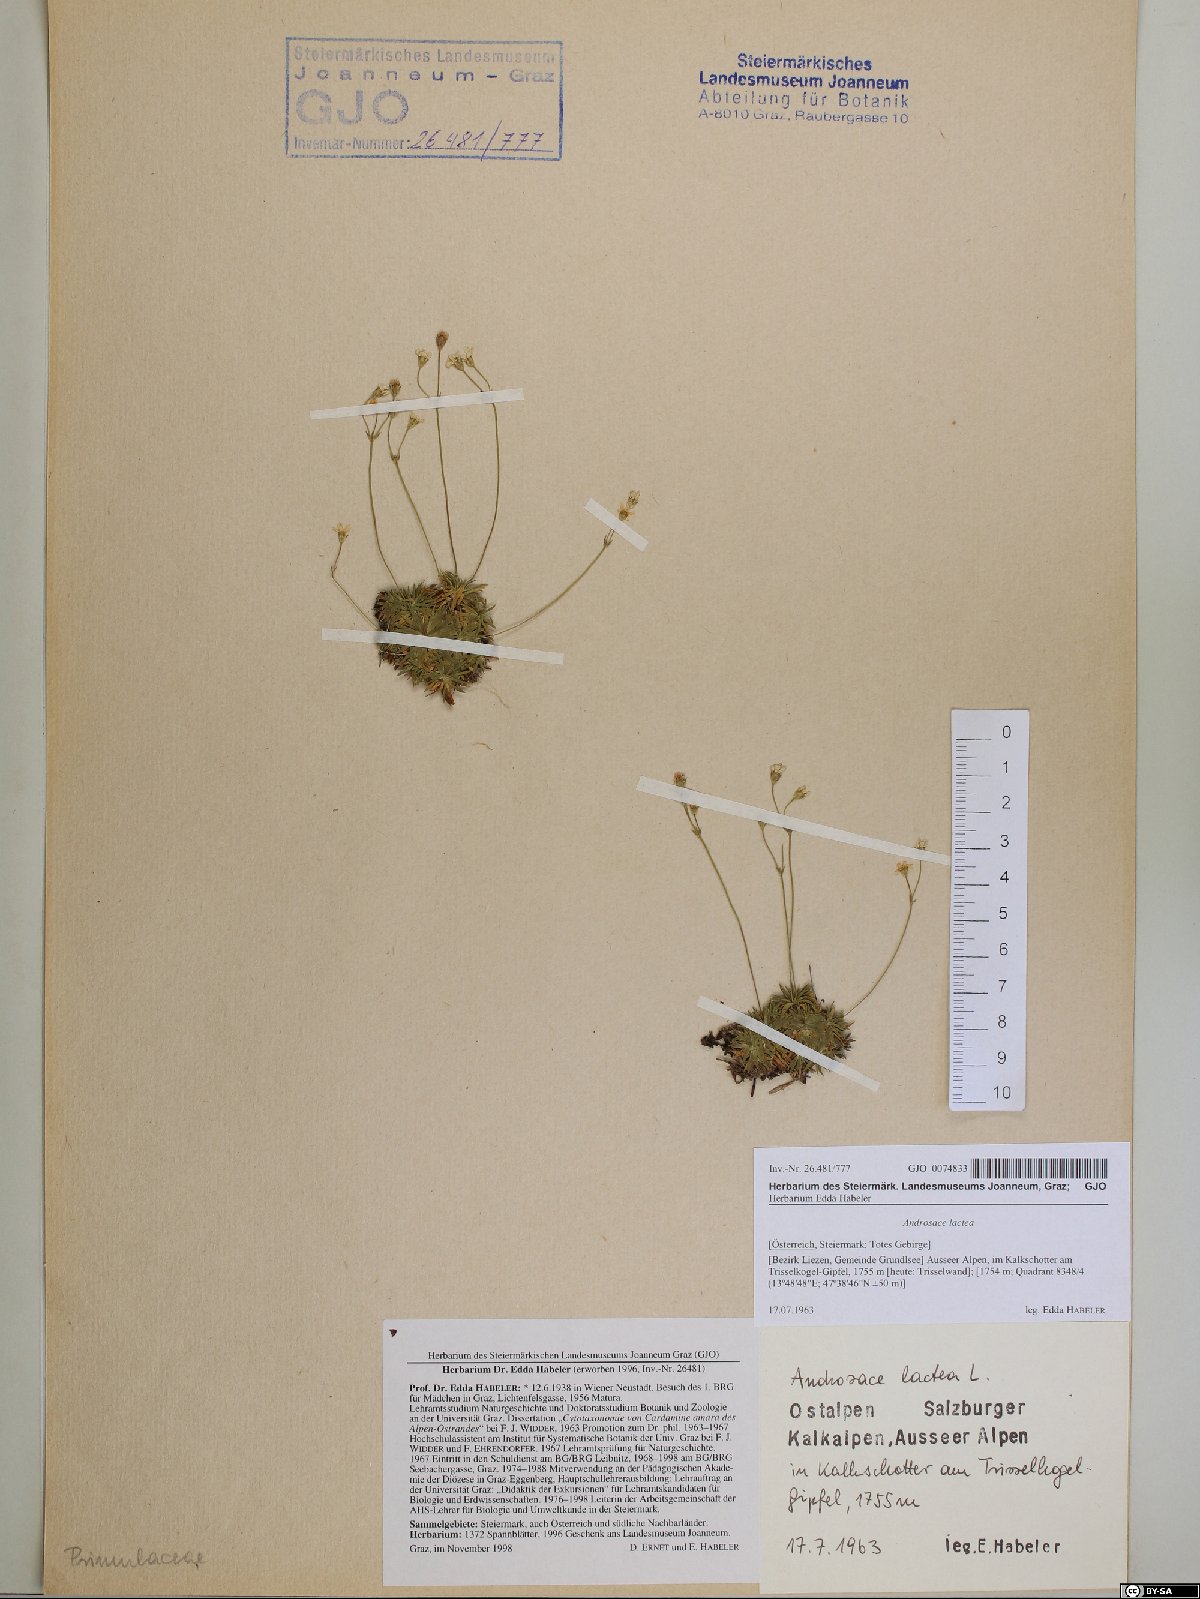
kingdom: Plantae
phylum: Tracheophyta
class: Magnoliopsida
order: Ericales
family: Primulaceae
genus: Androsace
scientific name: Androsace lactea
